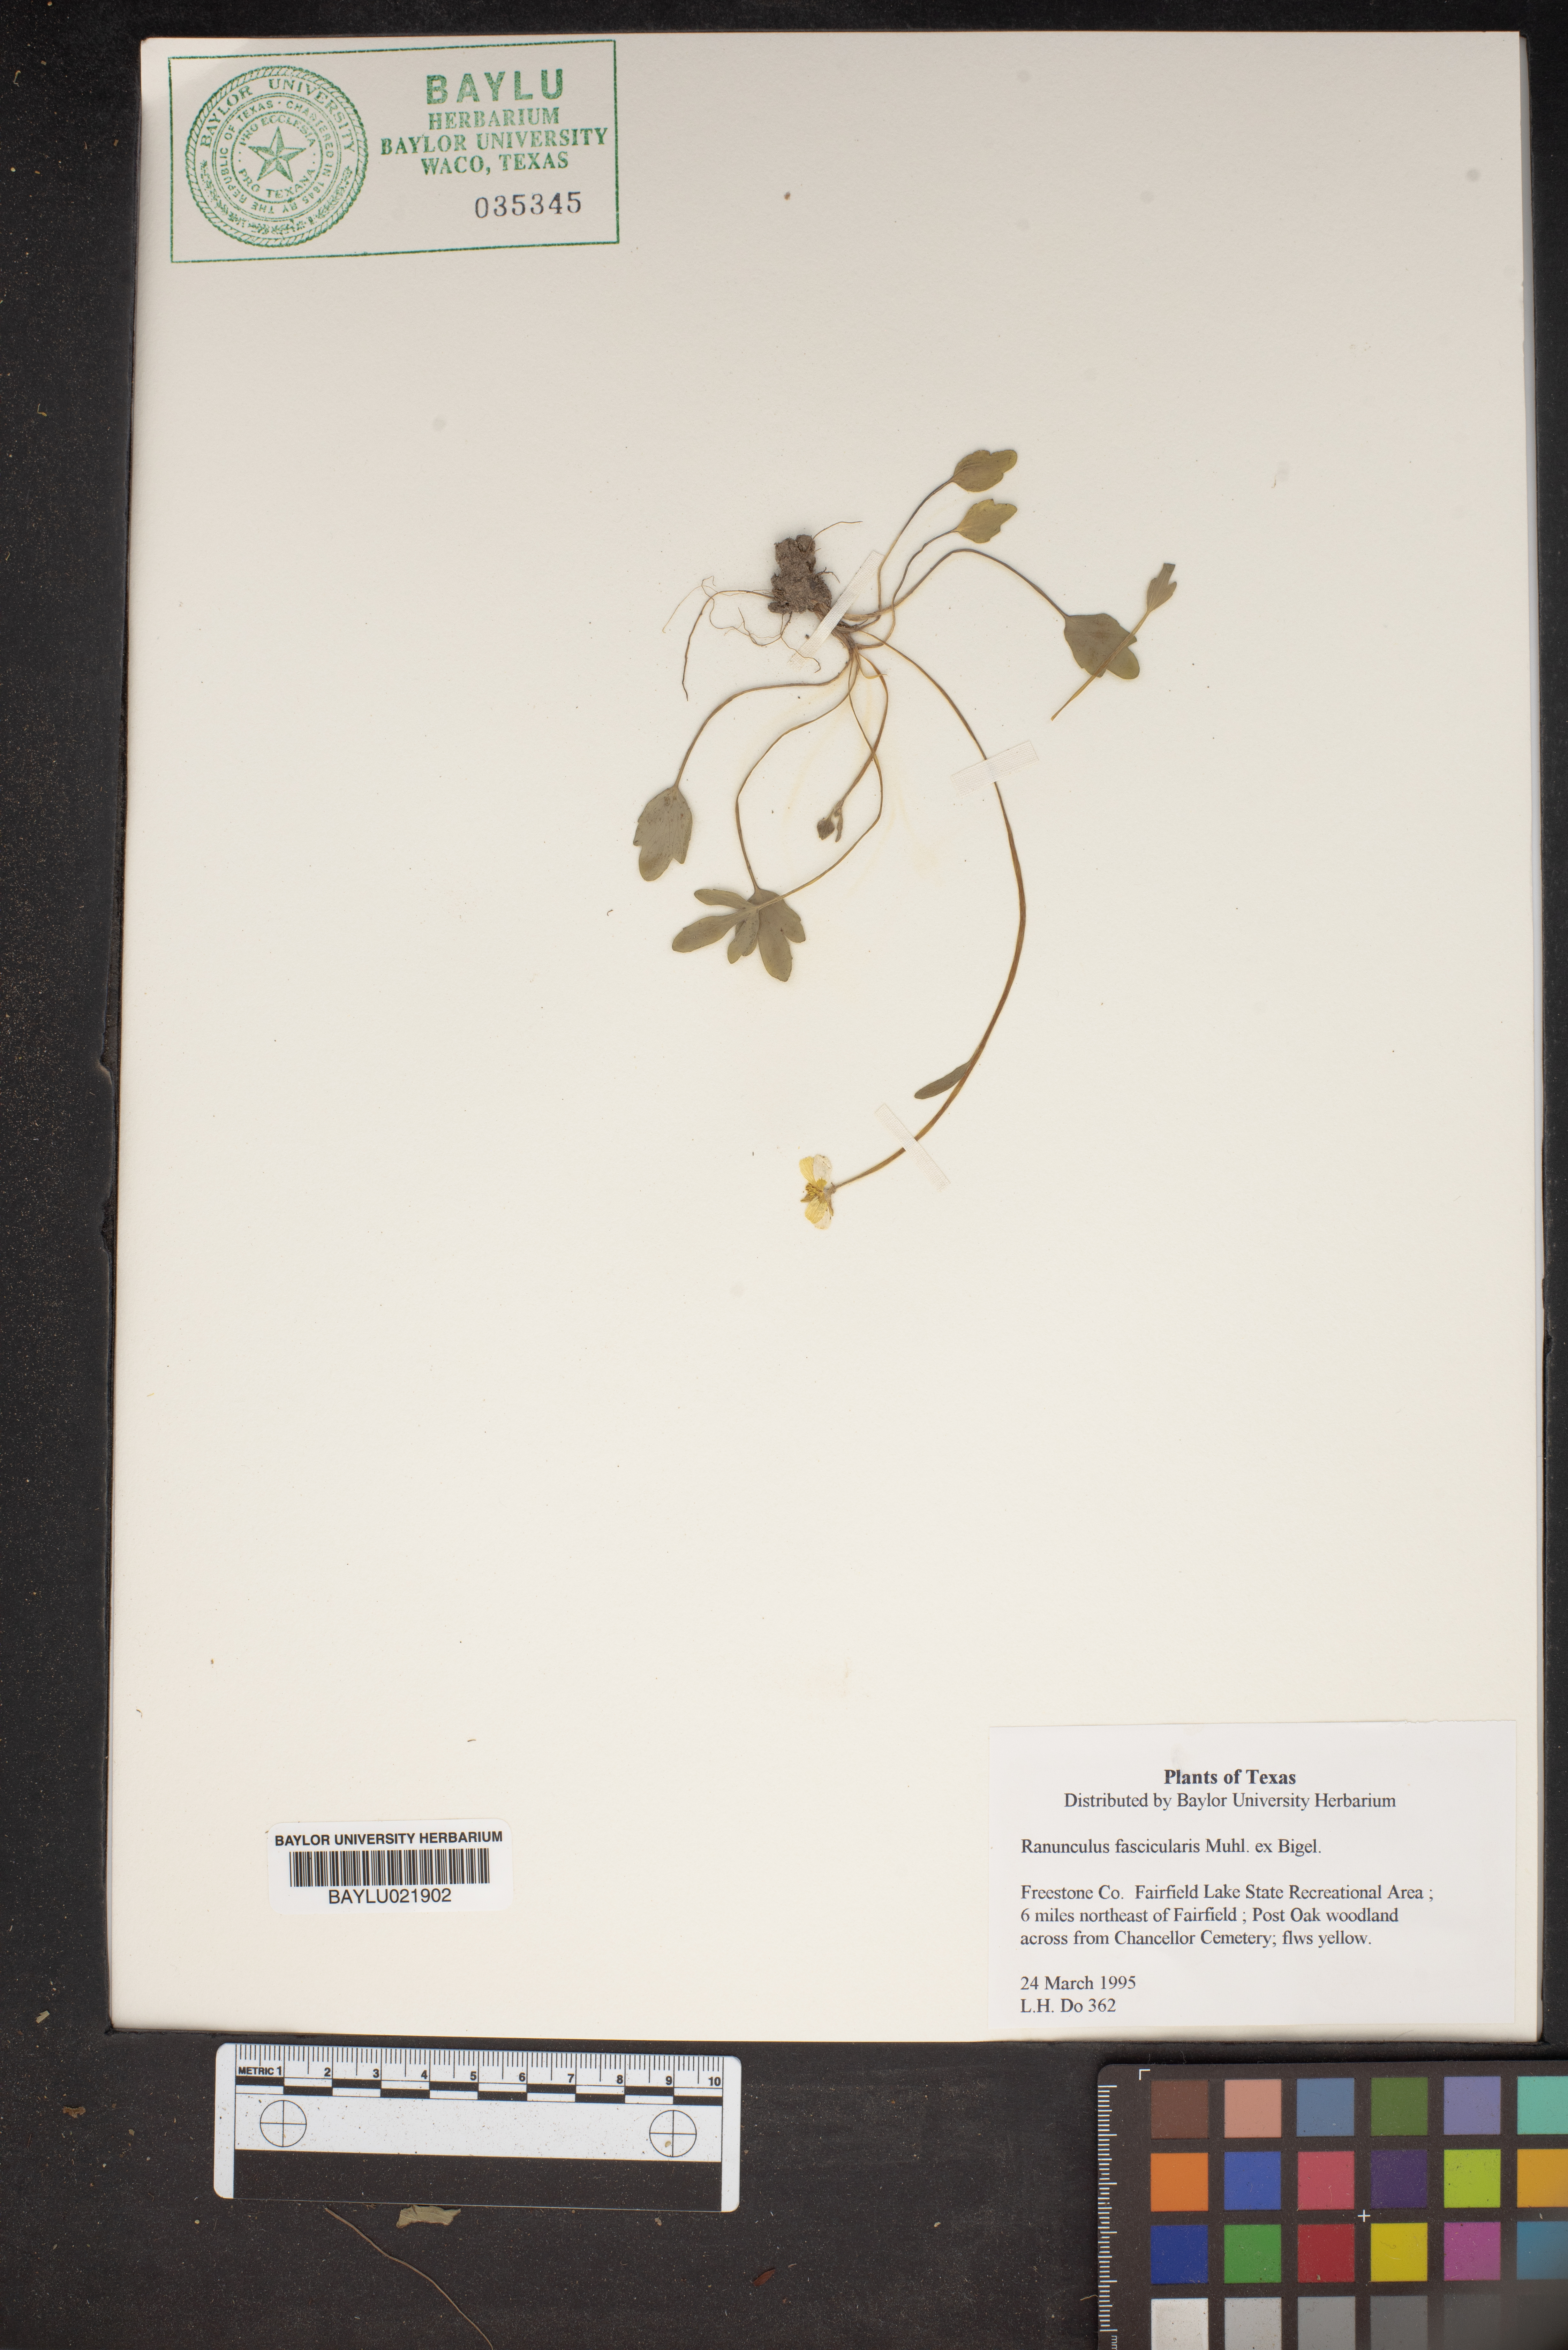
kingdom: Plantae
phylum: Tracheophyta
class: Magnoliopsida
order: Ranunculales
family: Ranunculaceae
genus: Ranunculus
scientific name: Ranunculus fascicularis
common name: Early buttercup
